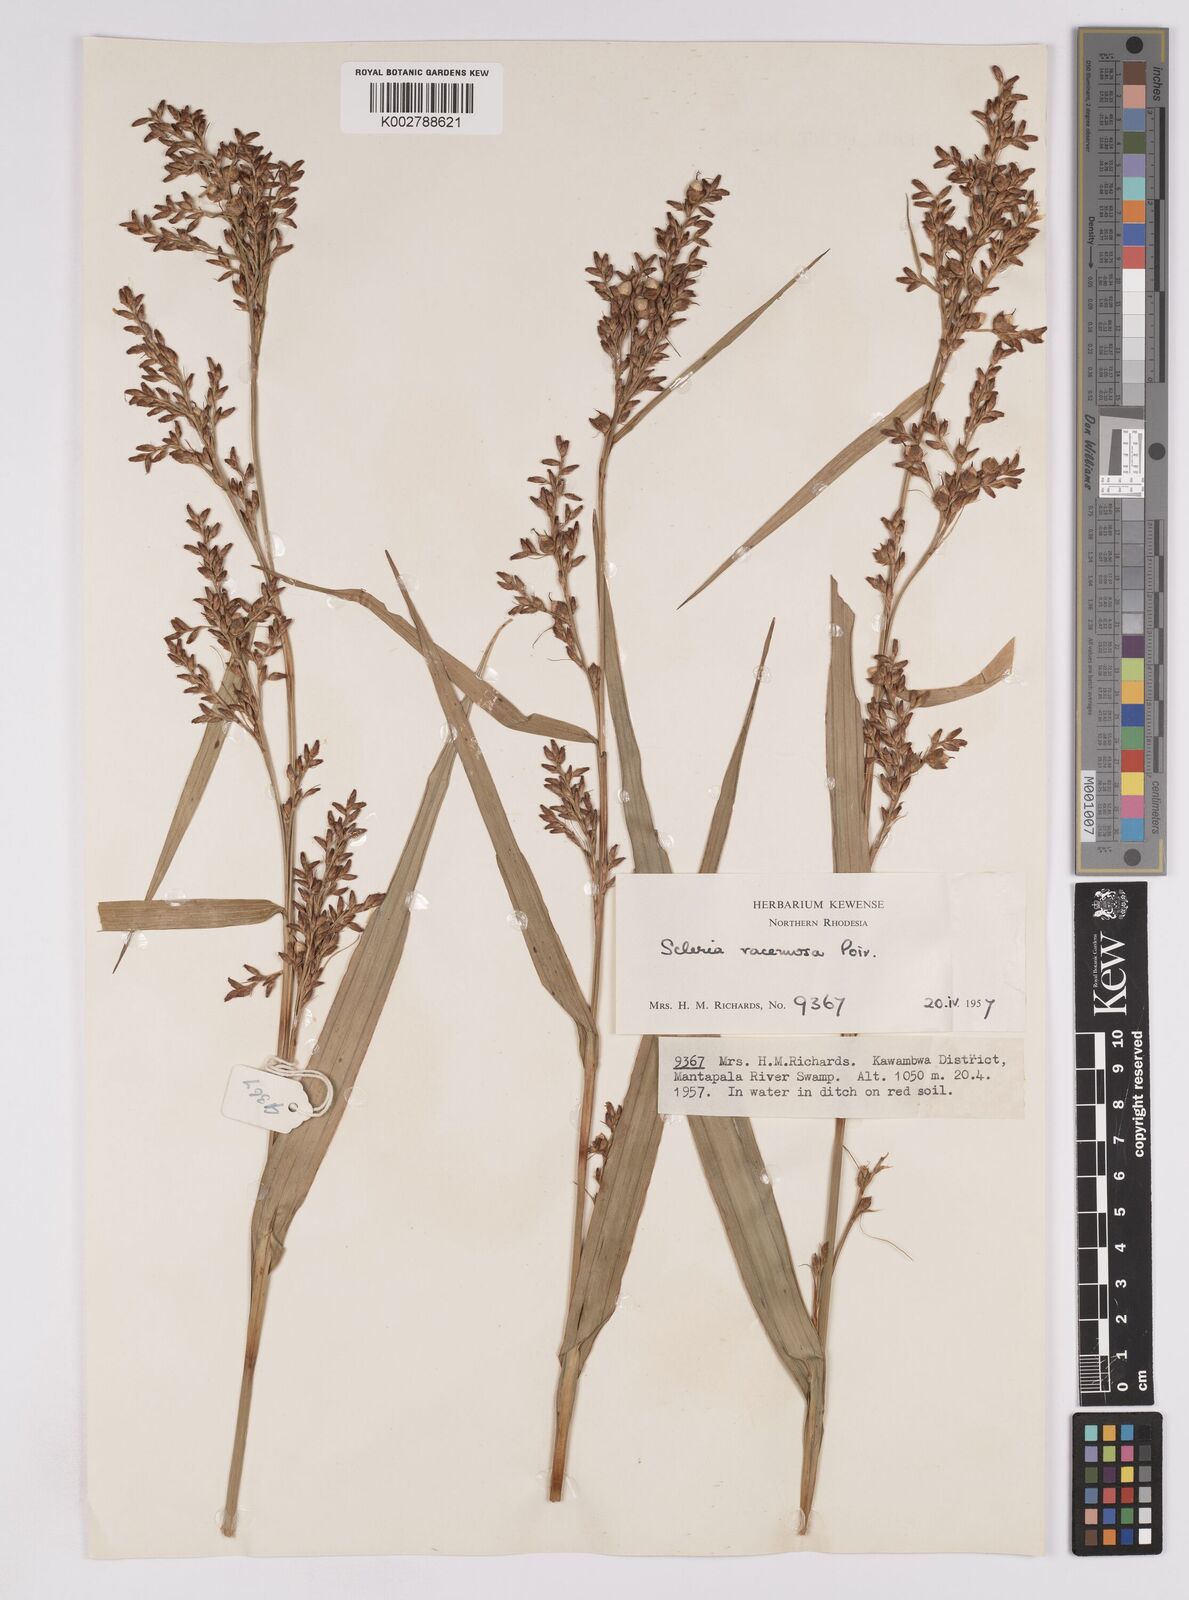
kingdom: Plantae
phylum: Tracheophyta
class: Liliopsida
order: Poales
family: Cyperaceae
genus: Scleria
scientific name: Scleria racemosa
